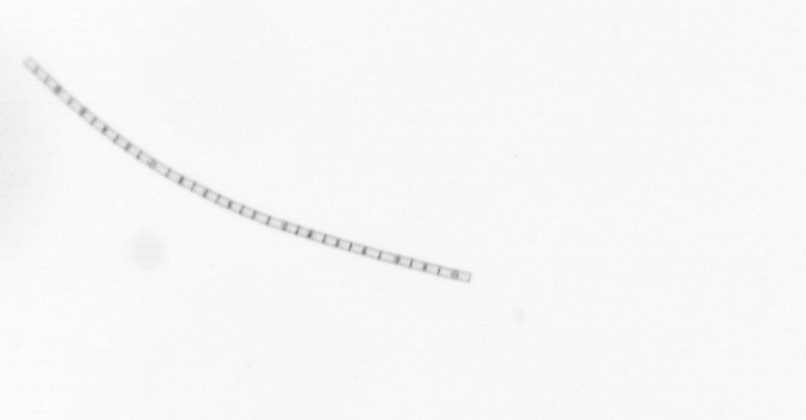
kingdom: Chromista
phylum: Ochrophyta
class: Bacillariophyceae
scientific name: Bacillariophyceae
